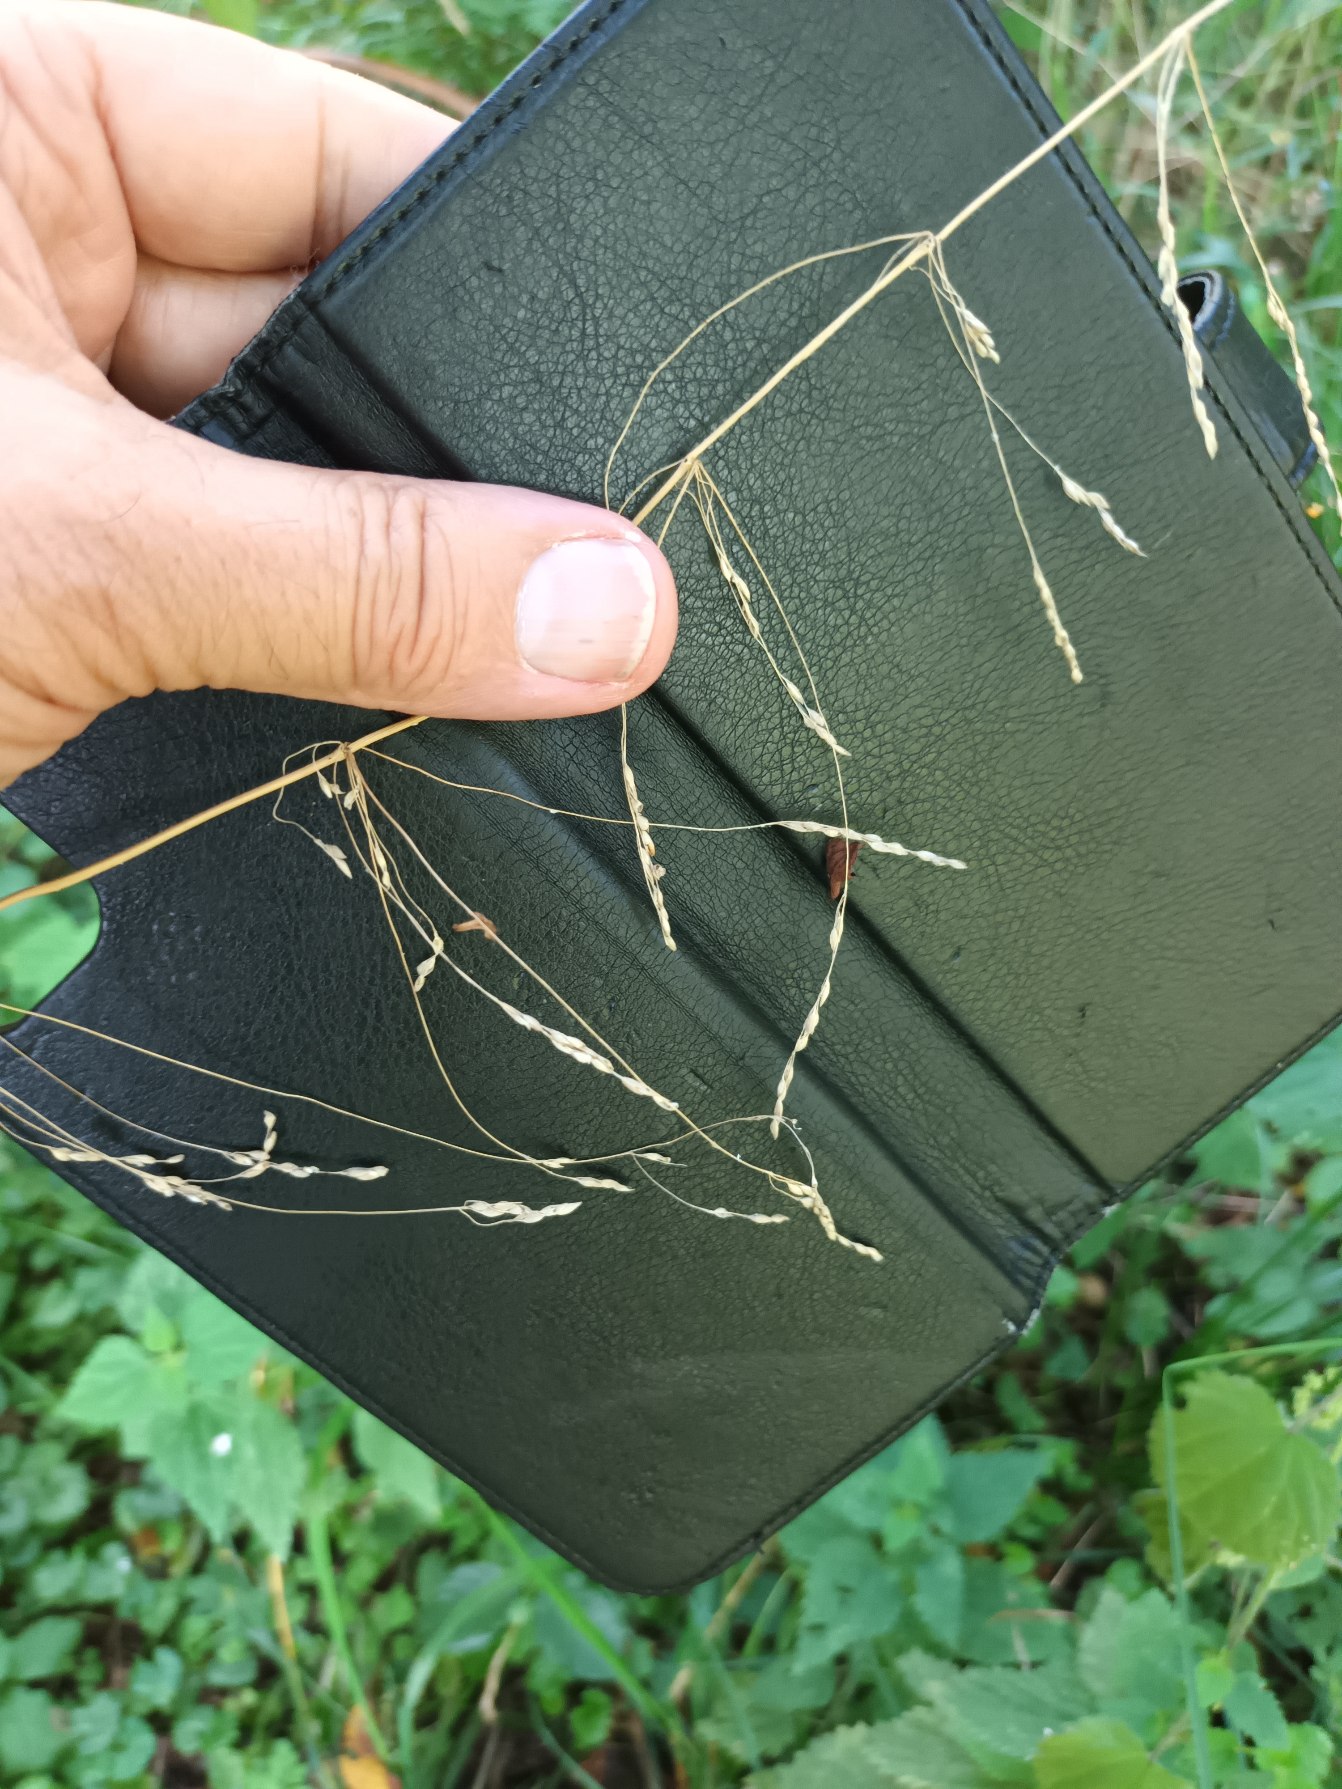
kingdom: Plantae
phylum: Tracheophyta
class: Liliopsida
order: Poales
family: Poaceae
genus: Milium
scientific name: Milium effusum
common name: Miliegræs
